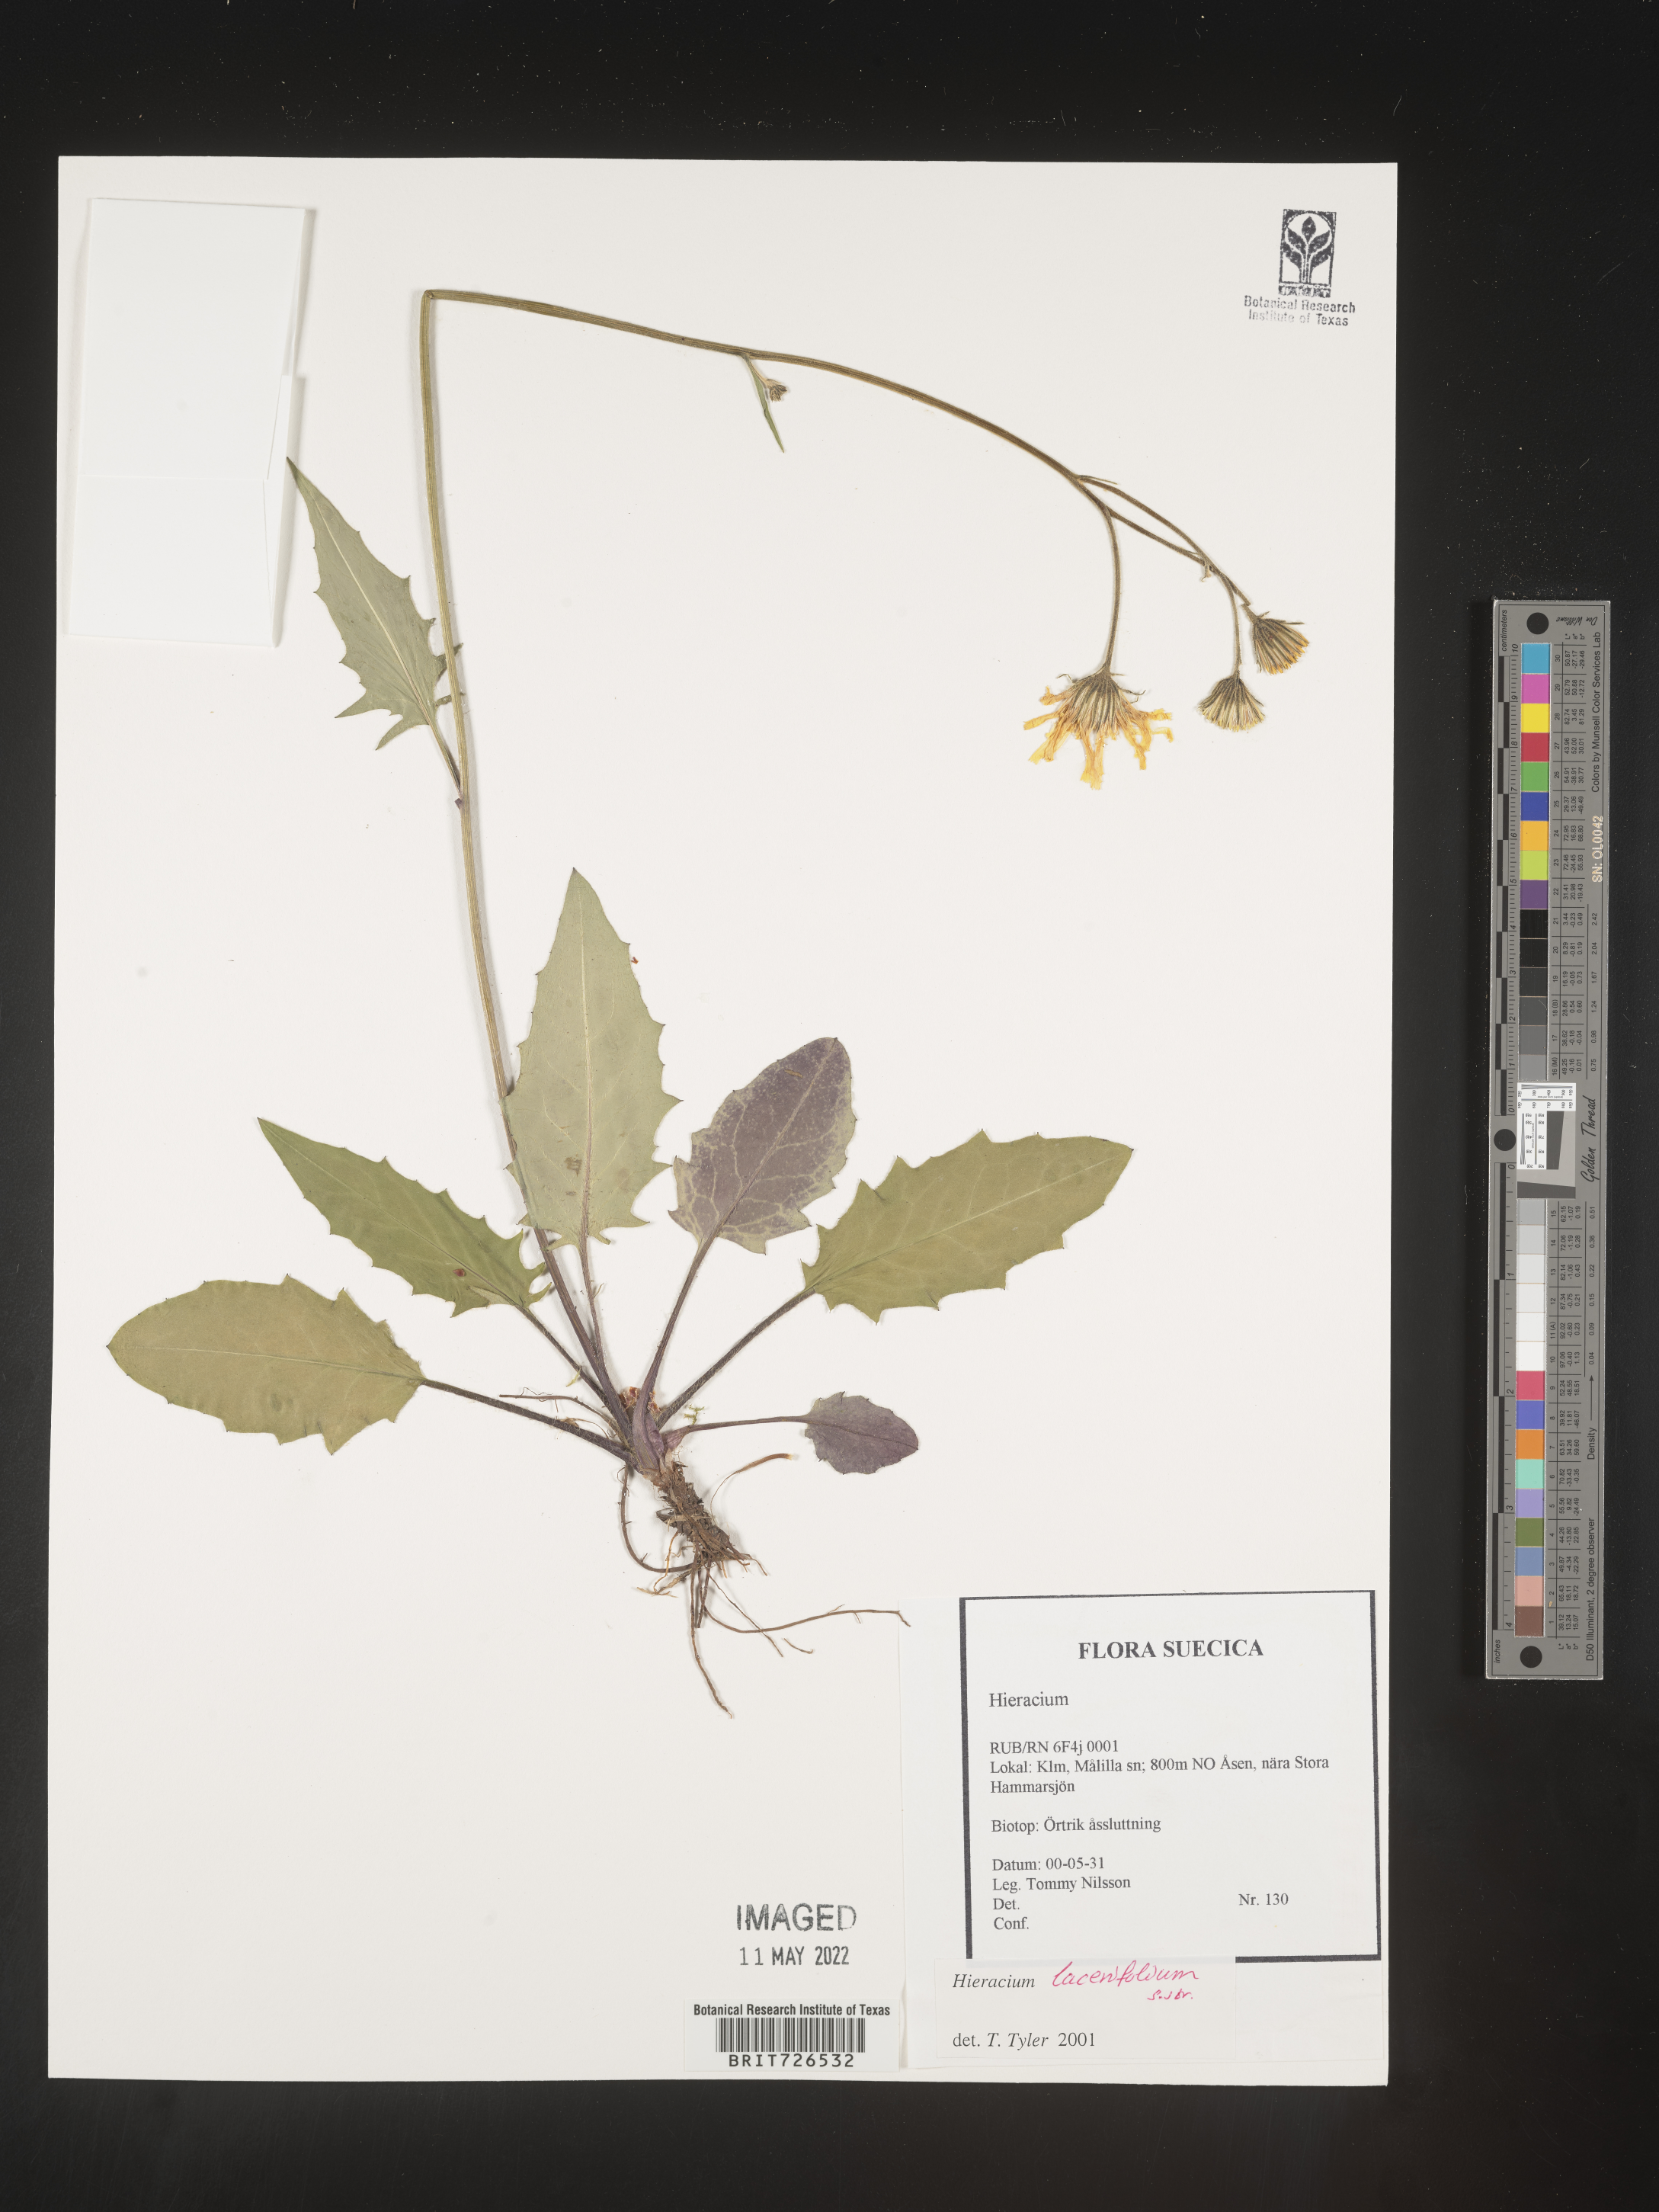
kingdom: Plantae
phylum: Tracheophyta
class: Magnoliopsida
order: Asterales
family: Asteraceae
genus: Hieracium
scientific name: Hieracium
